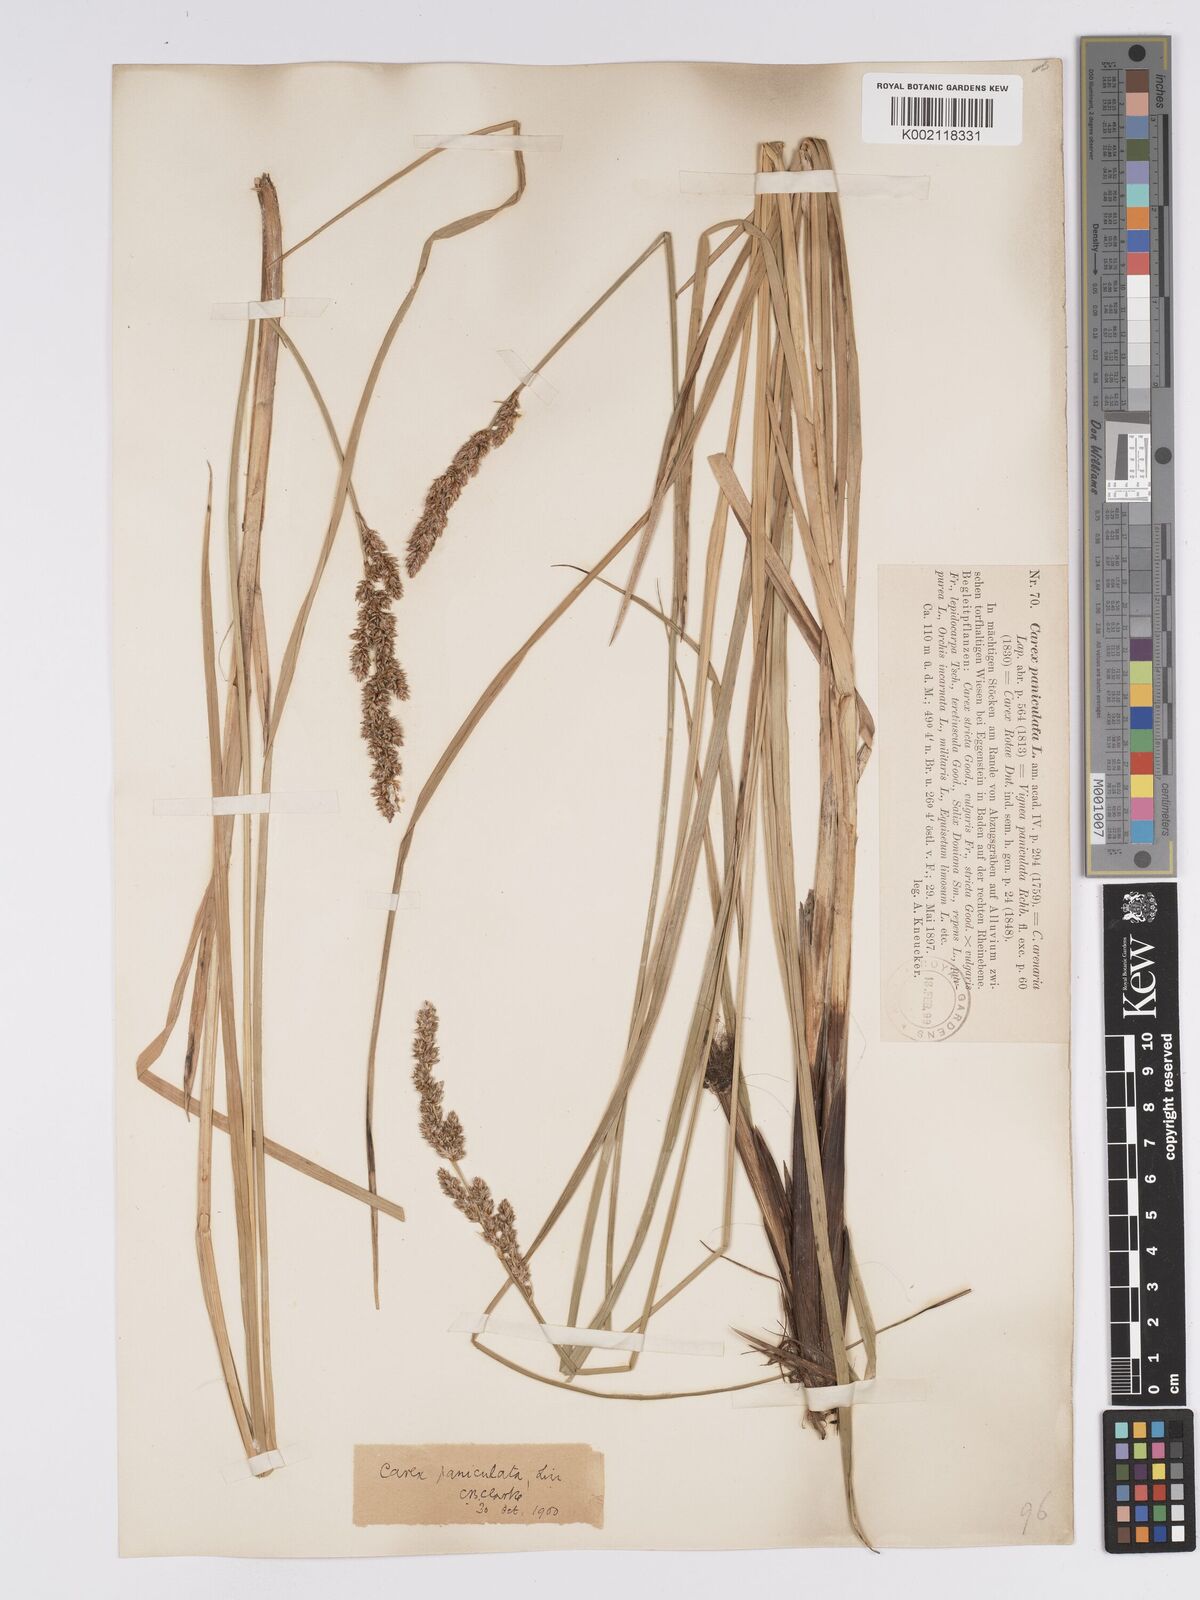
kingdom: Plantae
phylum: Tracheophyta
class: Liliopsida
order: Poales
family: Cyperaceae
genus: Carex
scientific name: Carex paniculata
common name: Greater tussock-sedge
